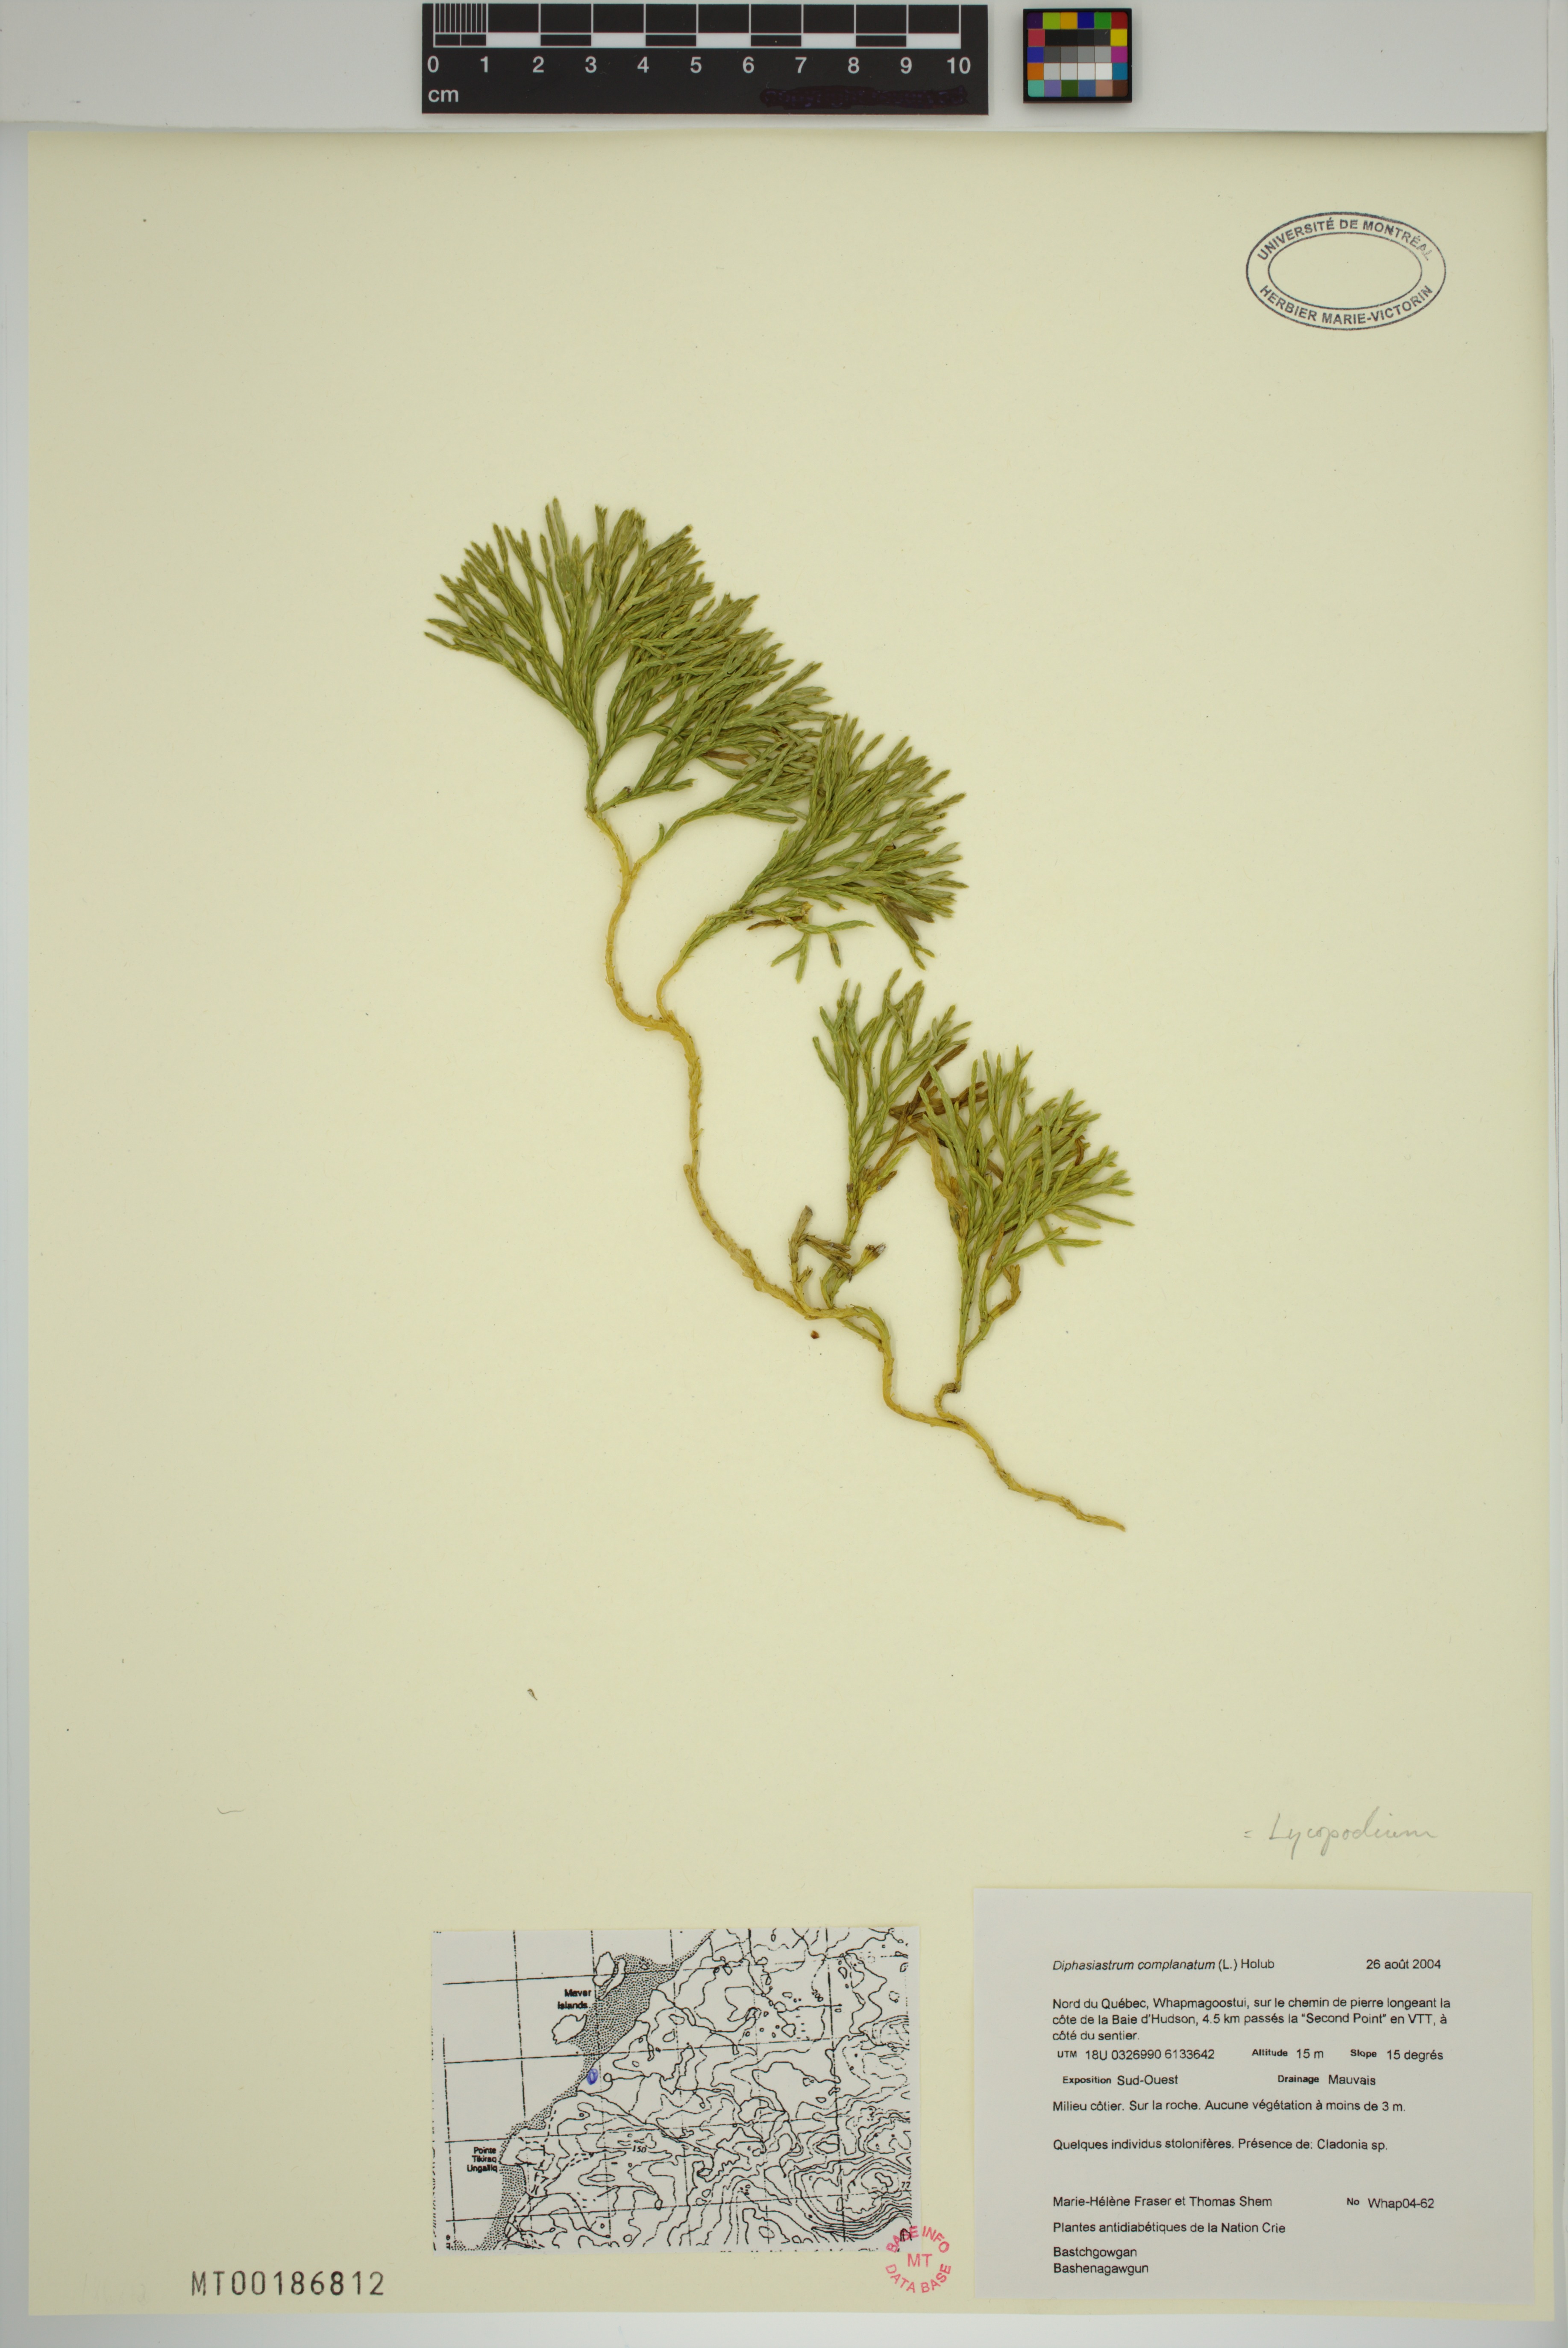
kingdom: Plantae
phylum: Tracheophyta
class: Lycopodiopsida
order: Lycopodiales
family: Lycopodiaceae
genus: Diphasiastrum
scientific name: Diphasiastrum complanatum
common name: Northern running-pine
